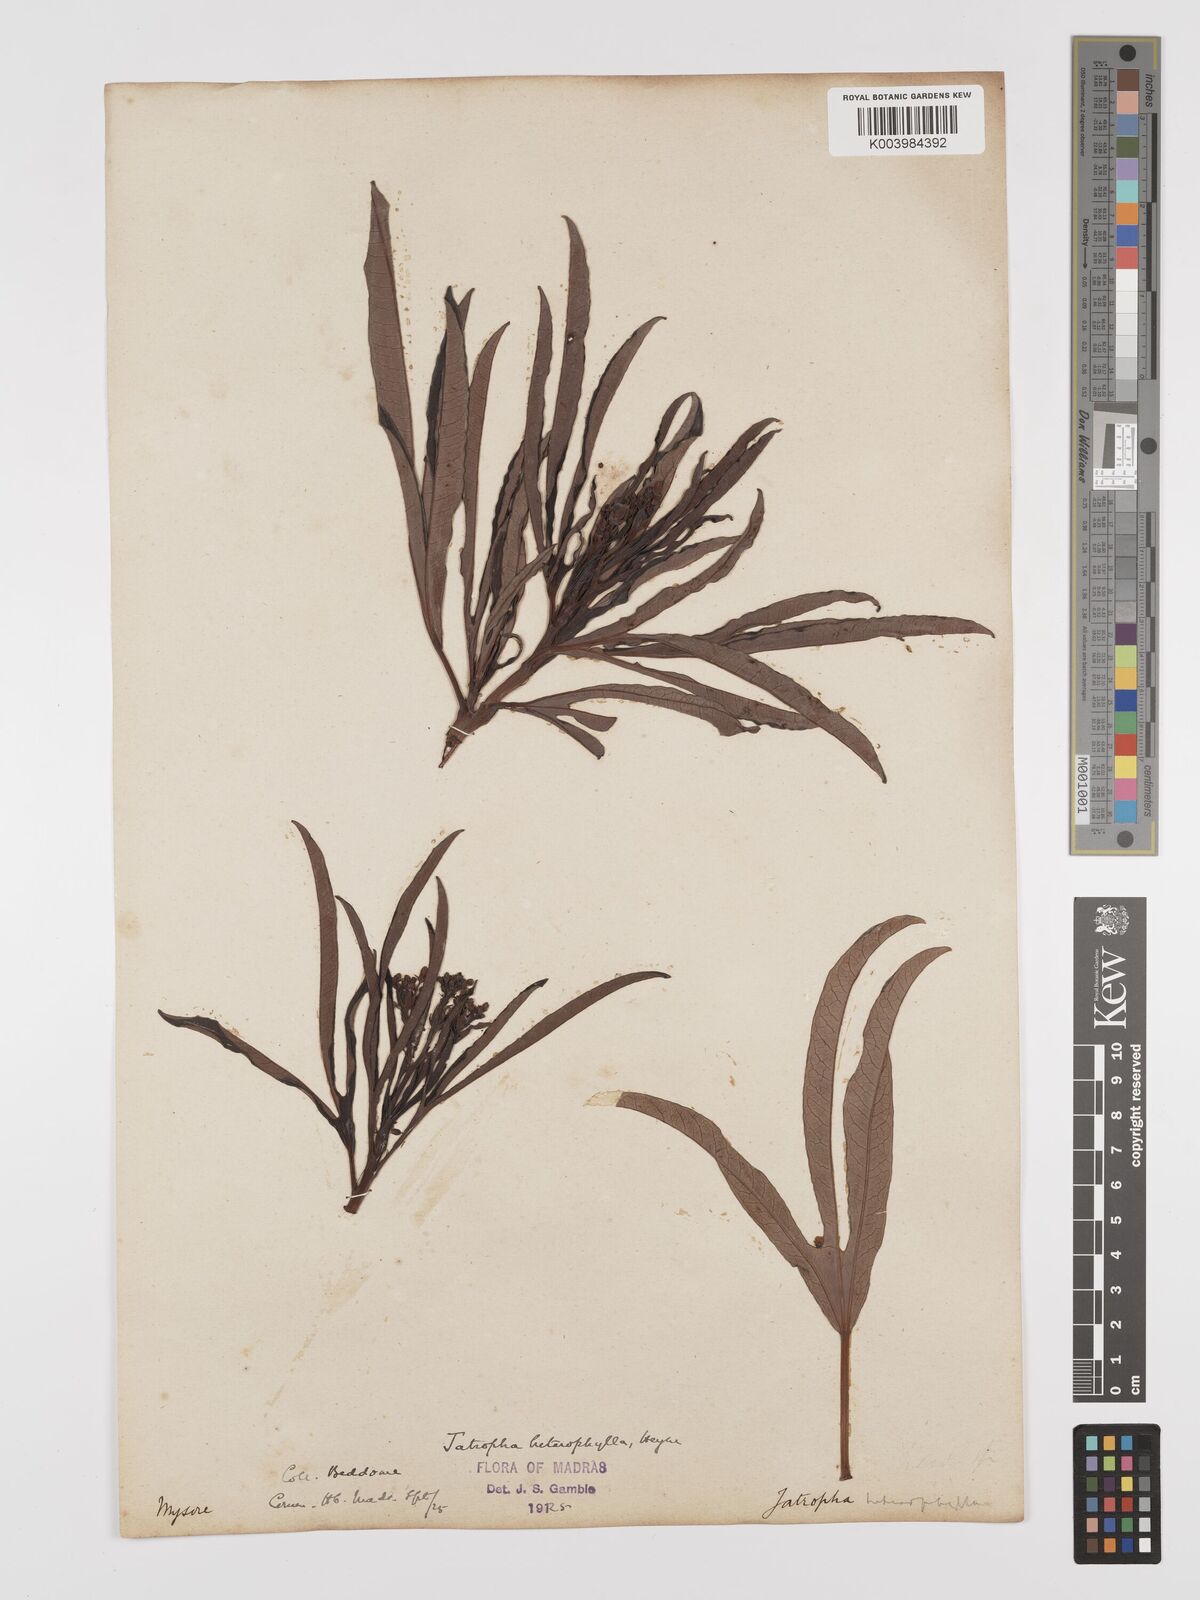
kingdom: Plantae
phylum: Tracheophyta
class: Magnoliopsida
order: Malpighiales
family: Euphorbiaceae
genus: Jatropha
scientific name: Jatropha
